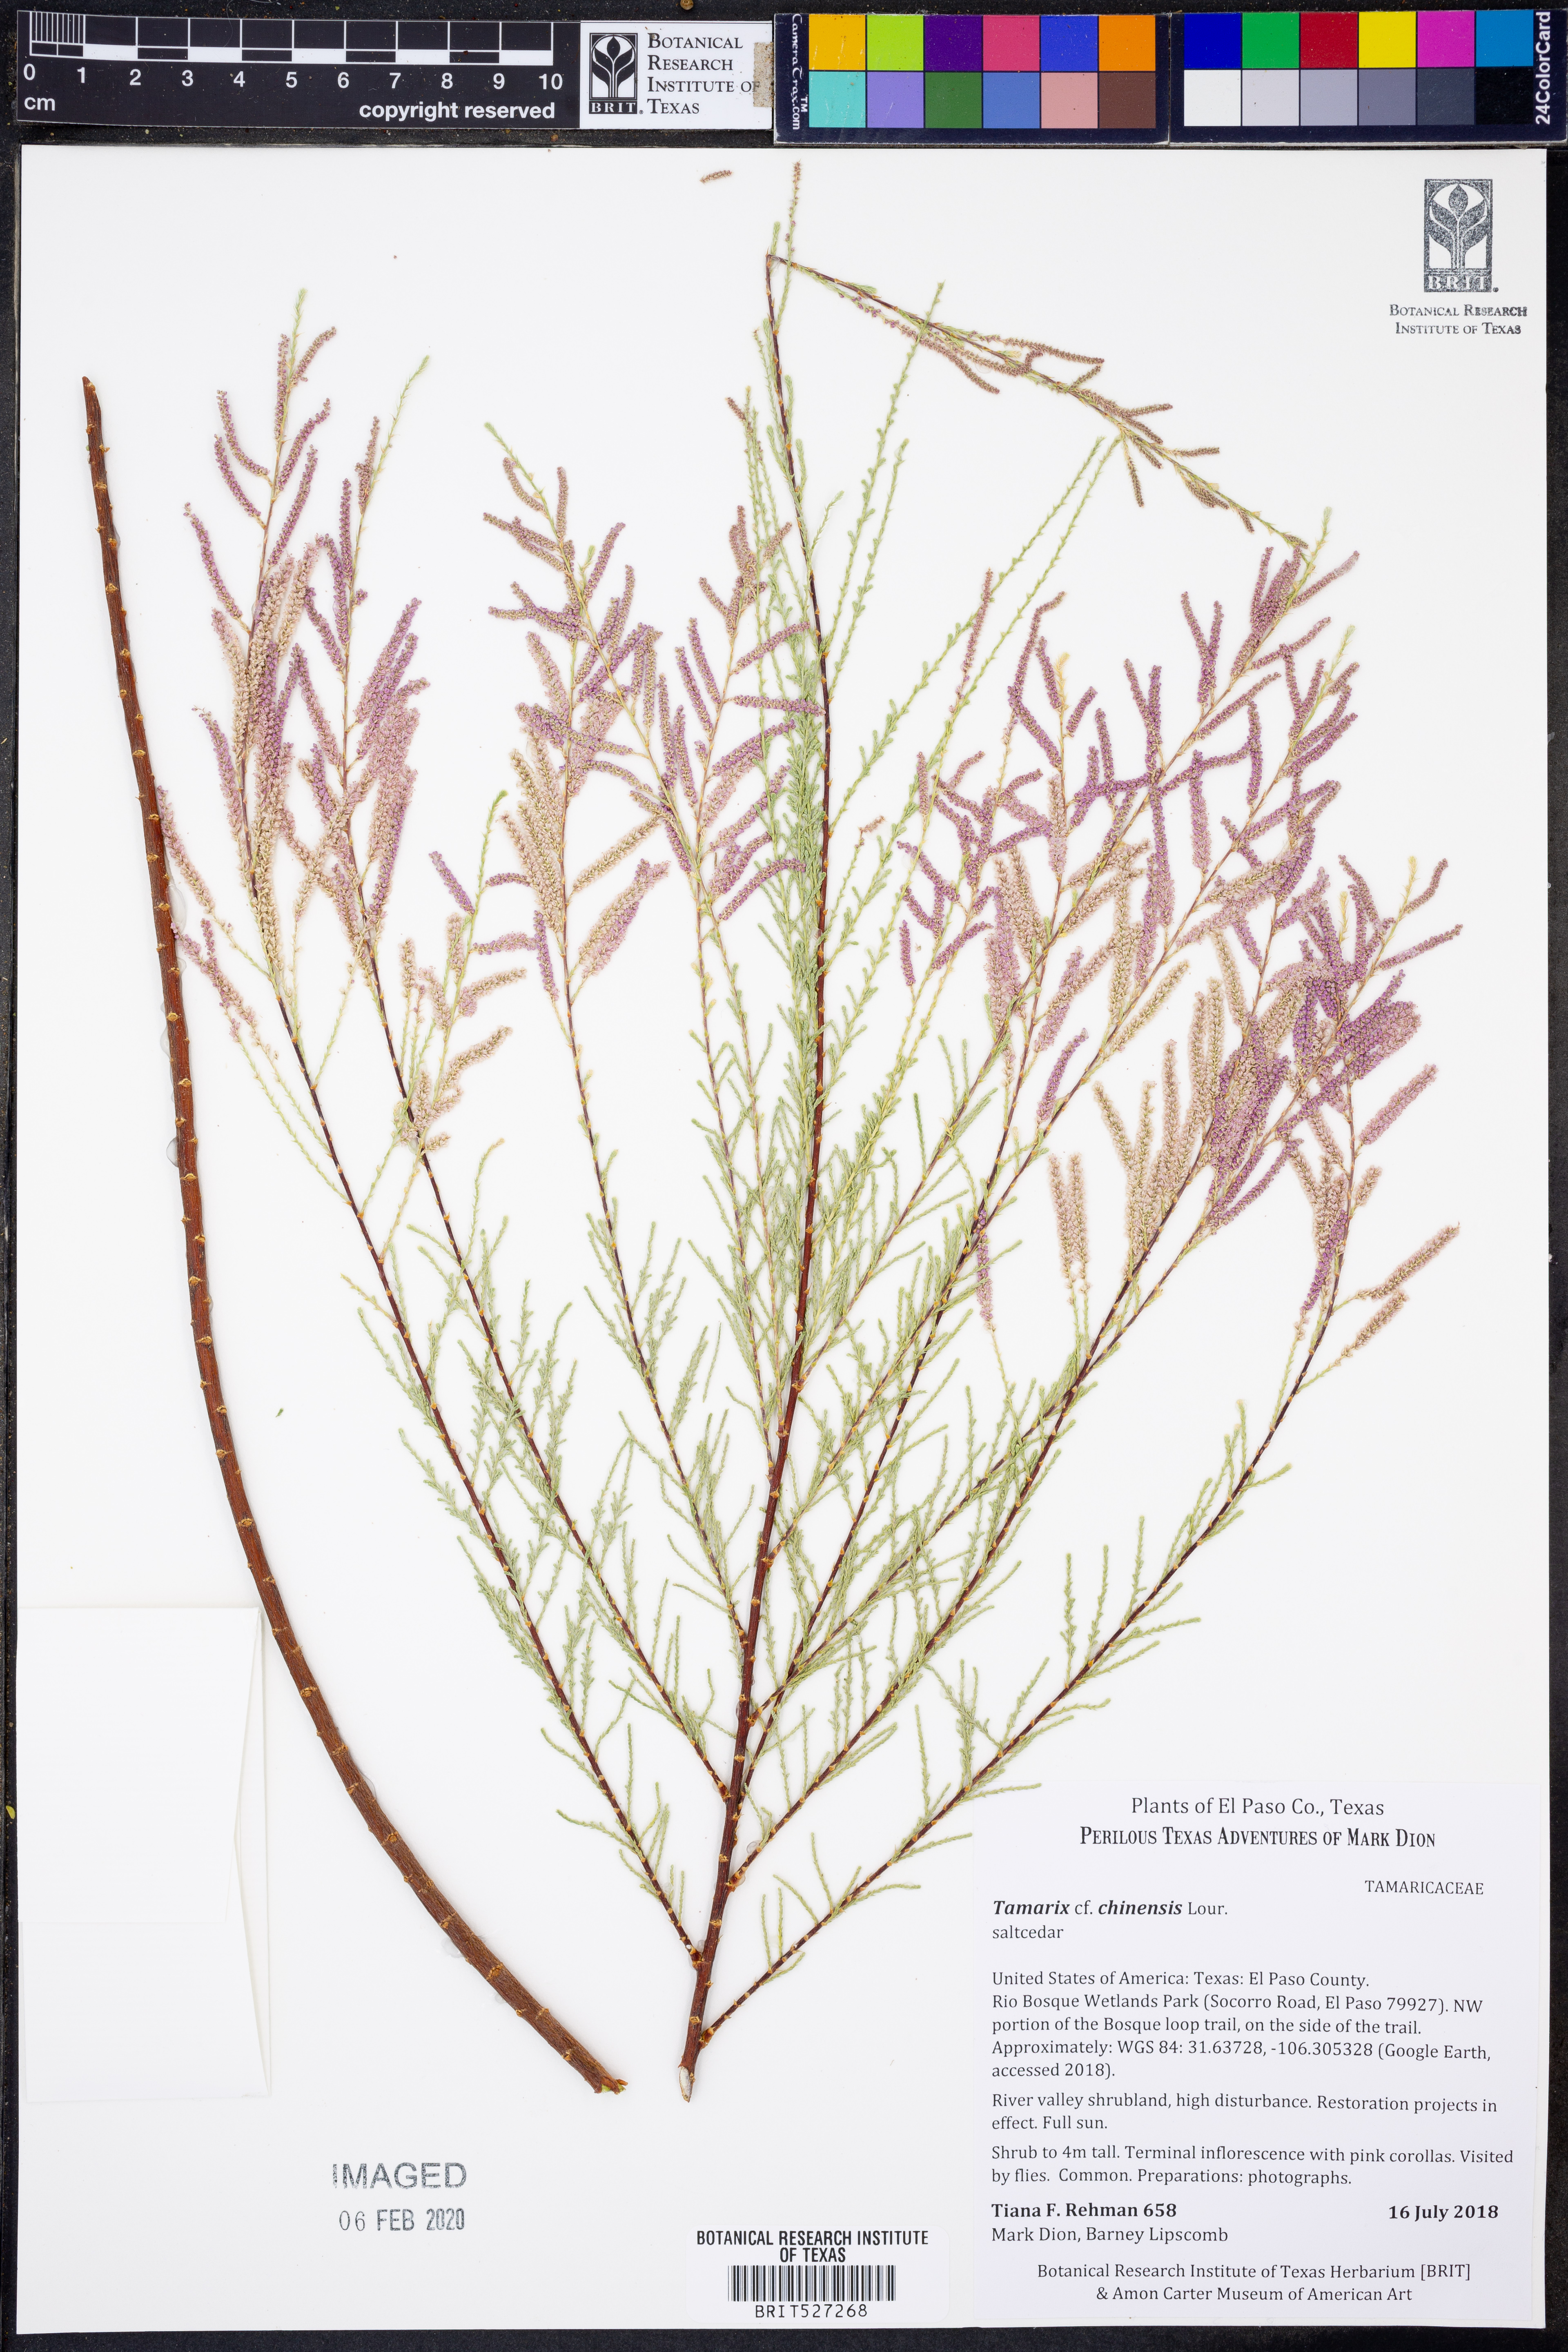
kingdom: Plantae
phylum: Tracheophyta
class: Magnoliopsida
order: Caryophyllales
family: Tamaricaceae
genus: Tamarix
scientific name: Tamarix chinensis
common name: Chinese tamarisk
